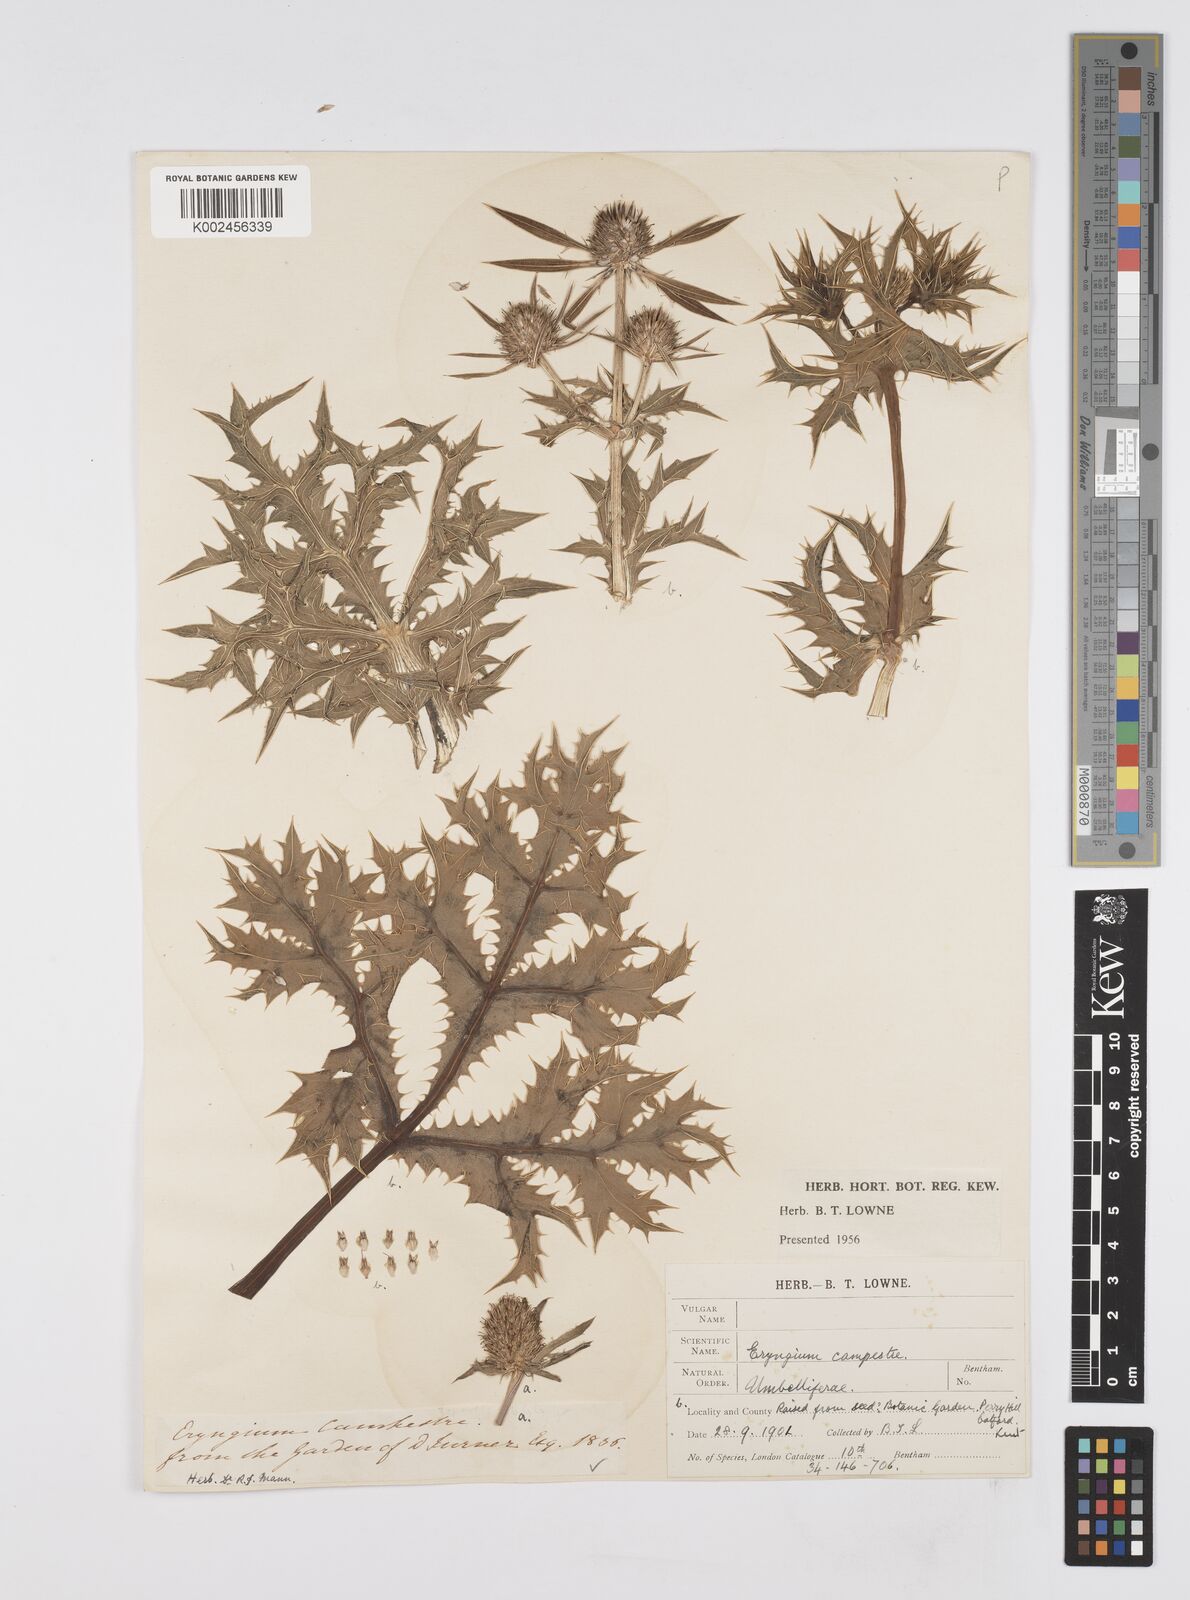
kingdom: Plantae
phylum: Tracheophyta
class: Magnoliopsida
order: Apiales
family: Apiaceae
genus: Eryngium
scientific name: Eryngium campestre
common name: Field eryngo
